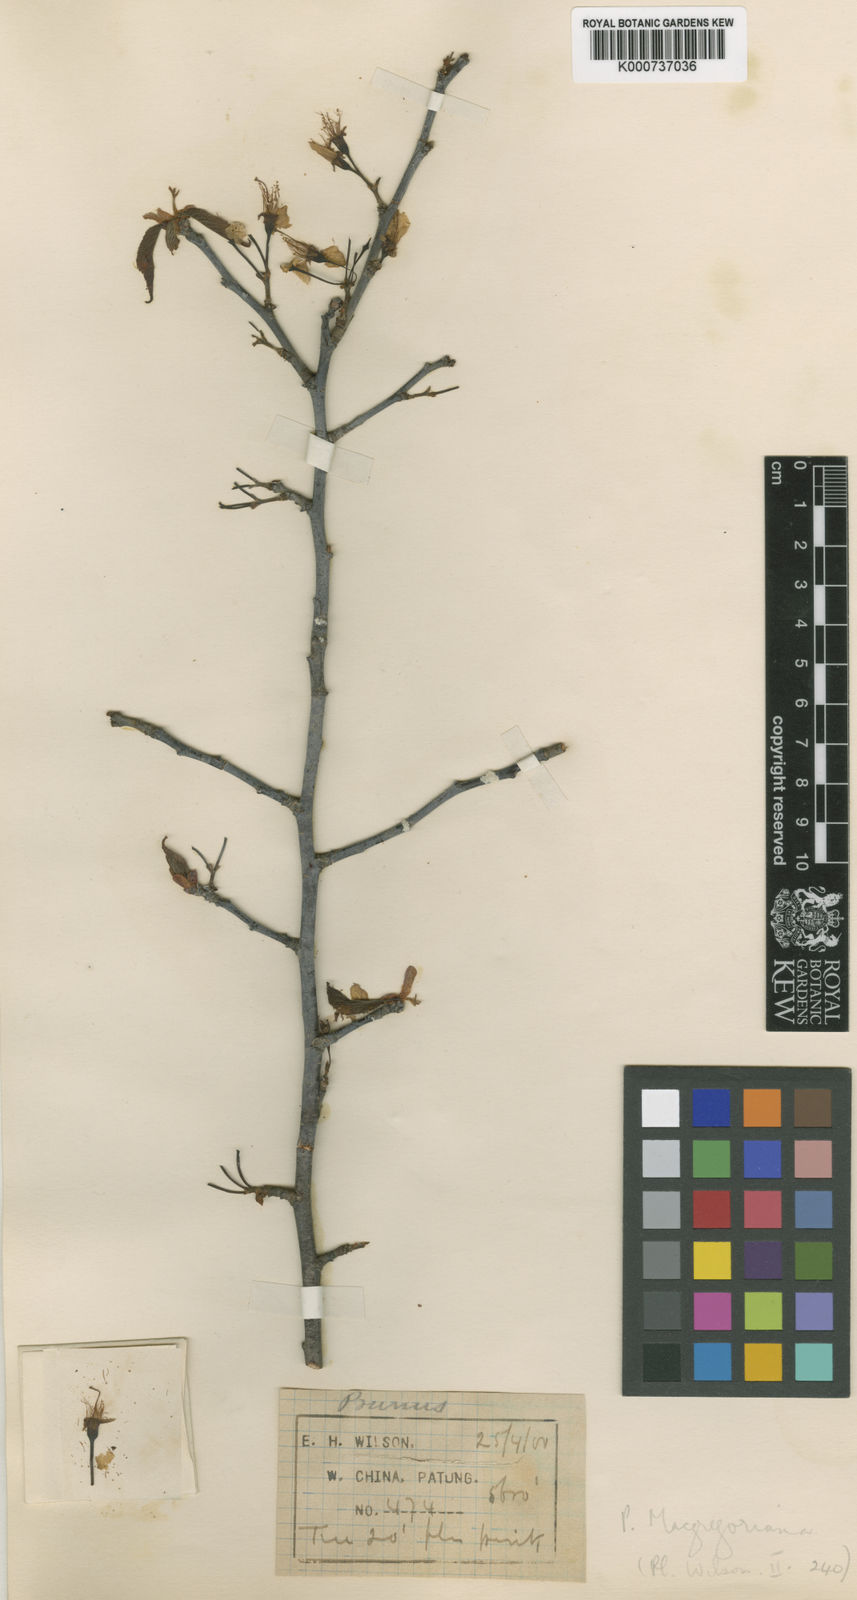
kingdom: Plantae
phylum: Tracheophyta
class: Magnoliopsida
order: Rosales
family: Rosaceae
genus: Prunus
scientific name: Prunus yunnanensis
